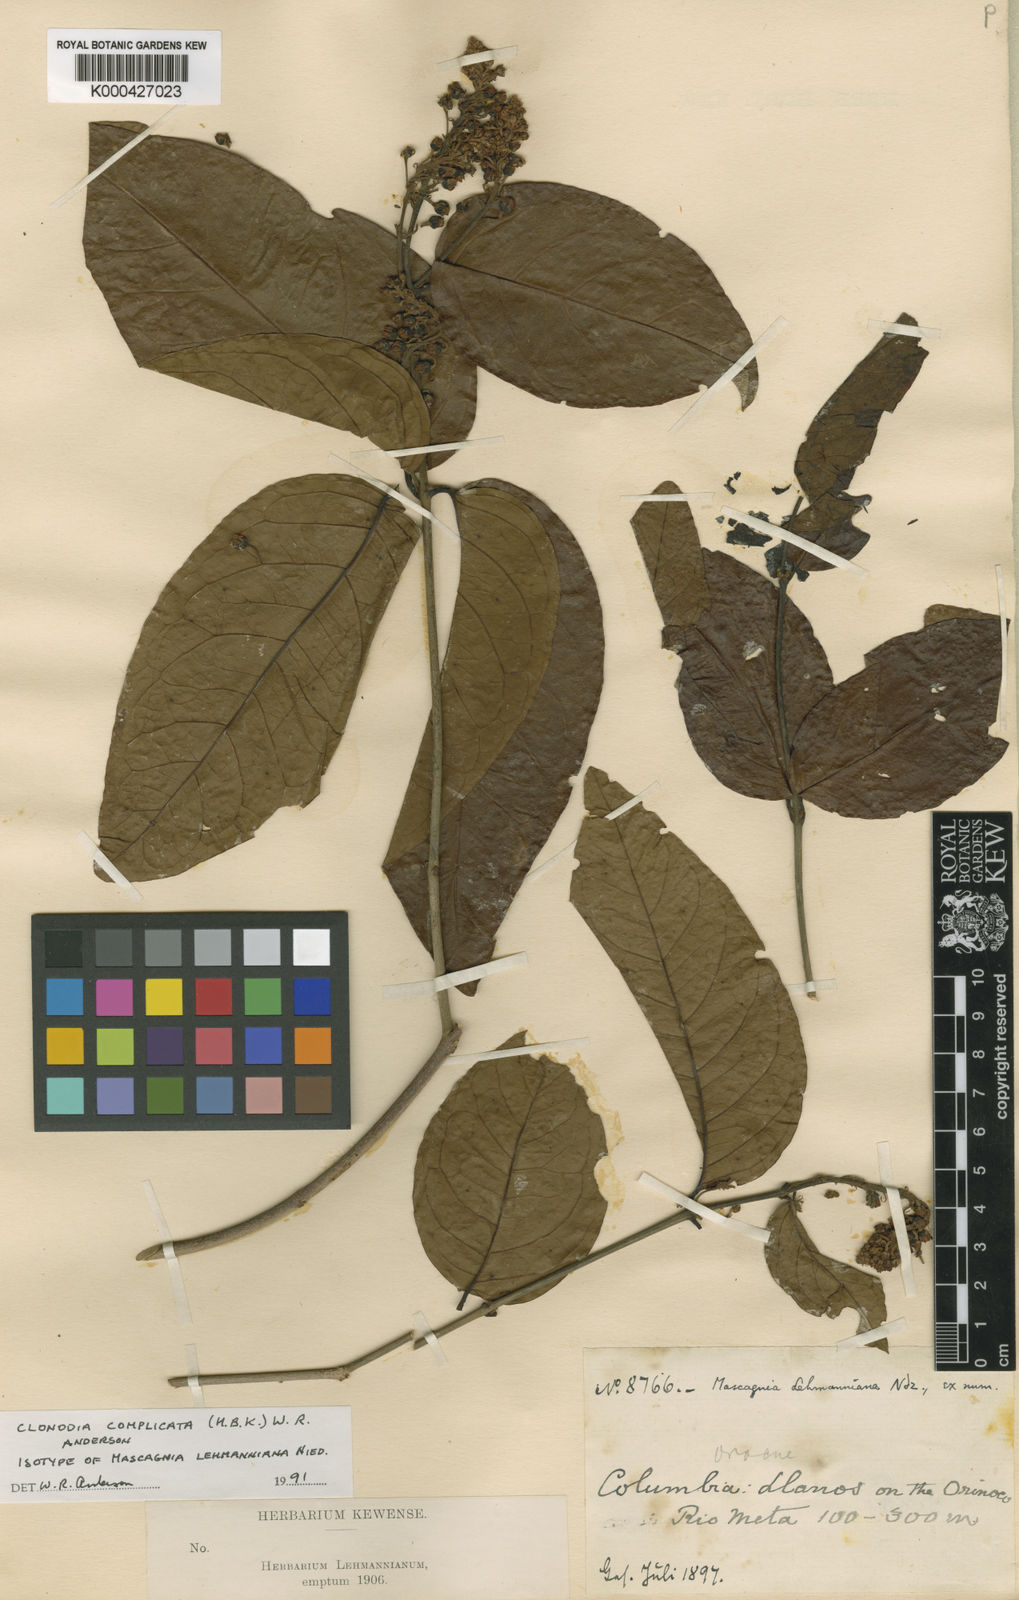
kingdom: Plantae
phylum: Tracheophyta
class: Magnoliopsida
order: Malpighiales
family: Malpighiaceae
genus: Heteropterys
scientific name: Heteropterys complicata
